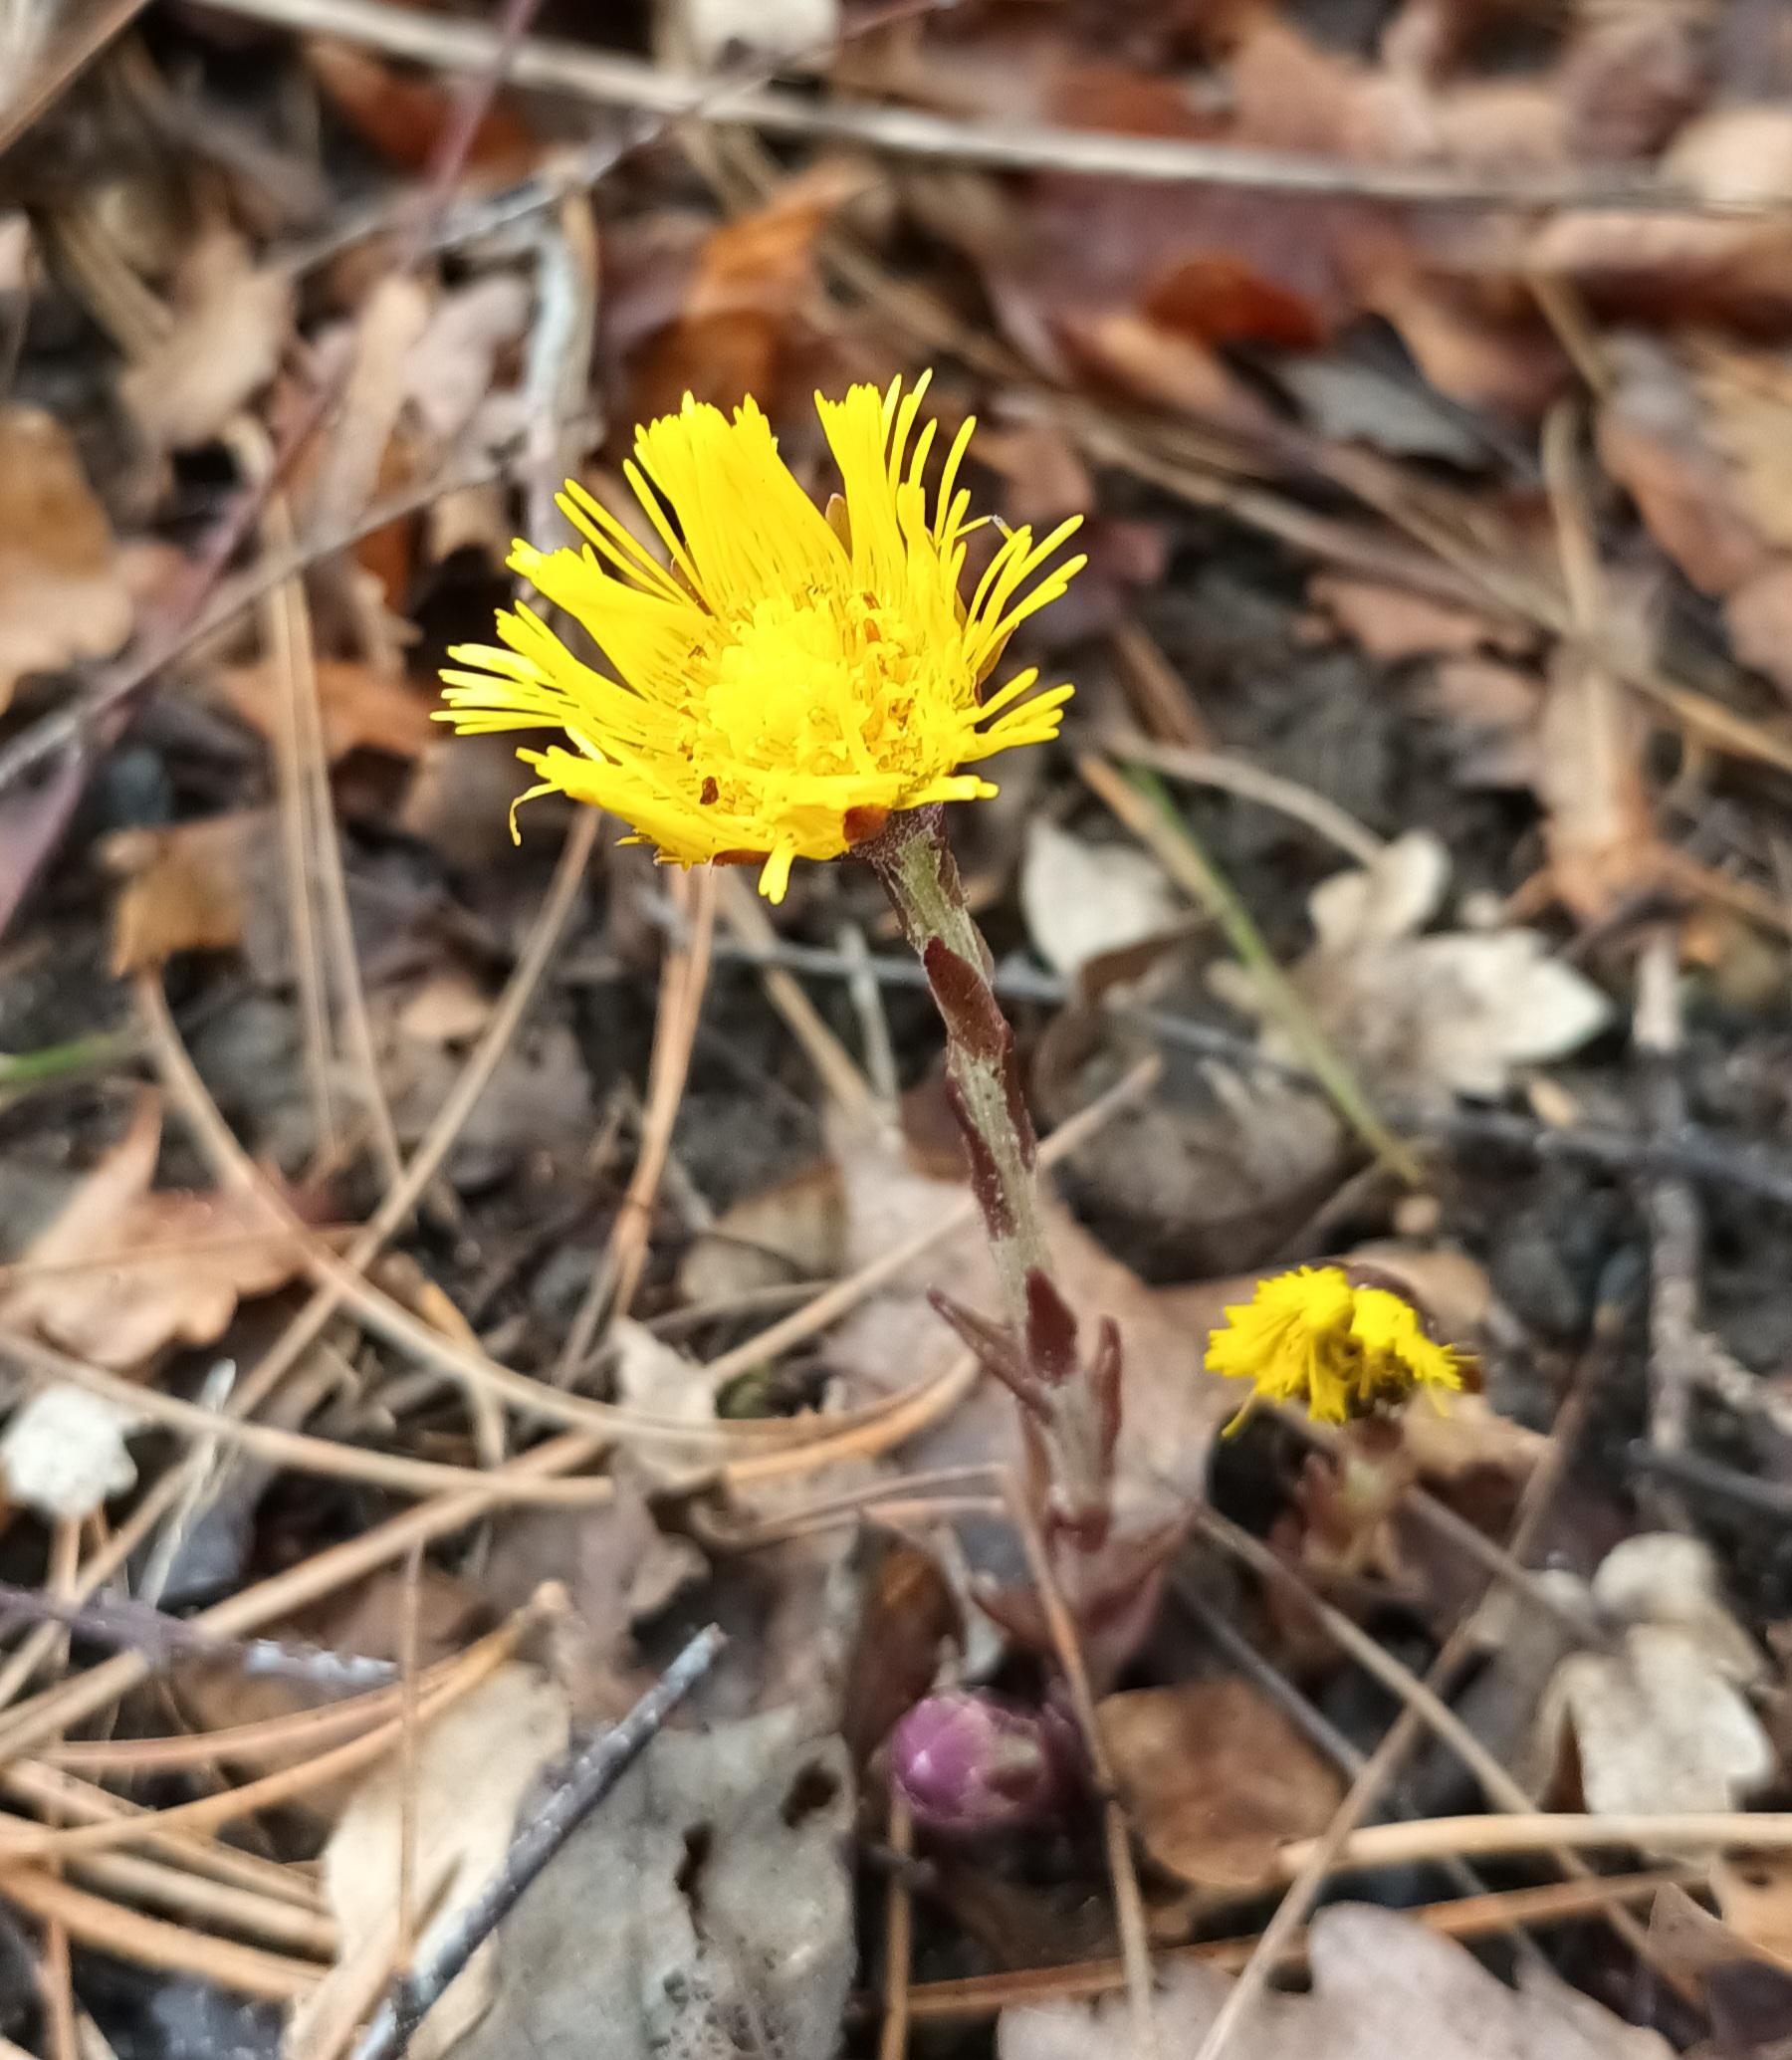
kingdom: Plantae
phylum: Tracheophyta
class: Magnoliopsida
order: Asterales
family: Asteraceae
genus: Tussilago
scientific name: Tussilago farfara
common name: Følfod
